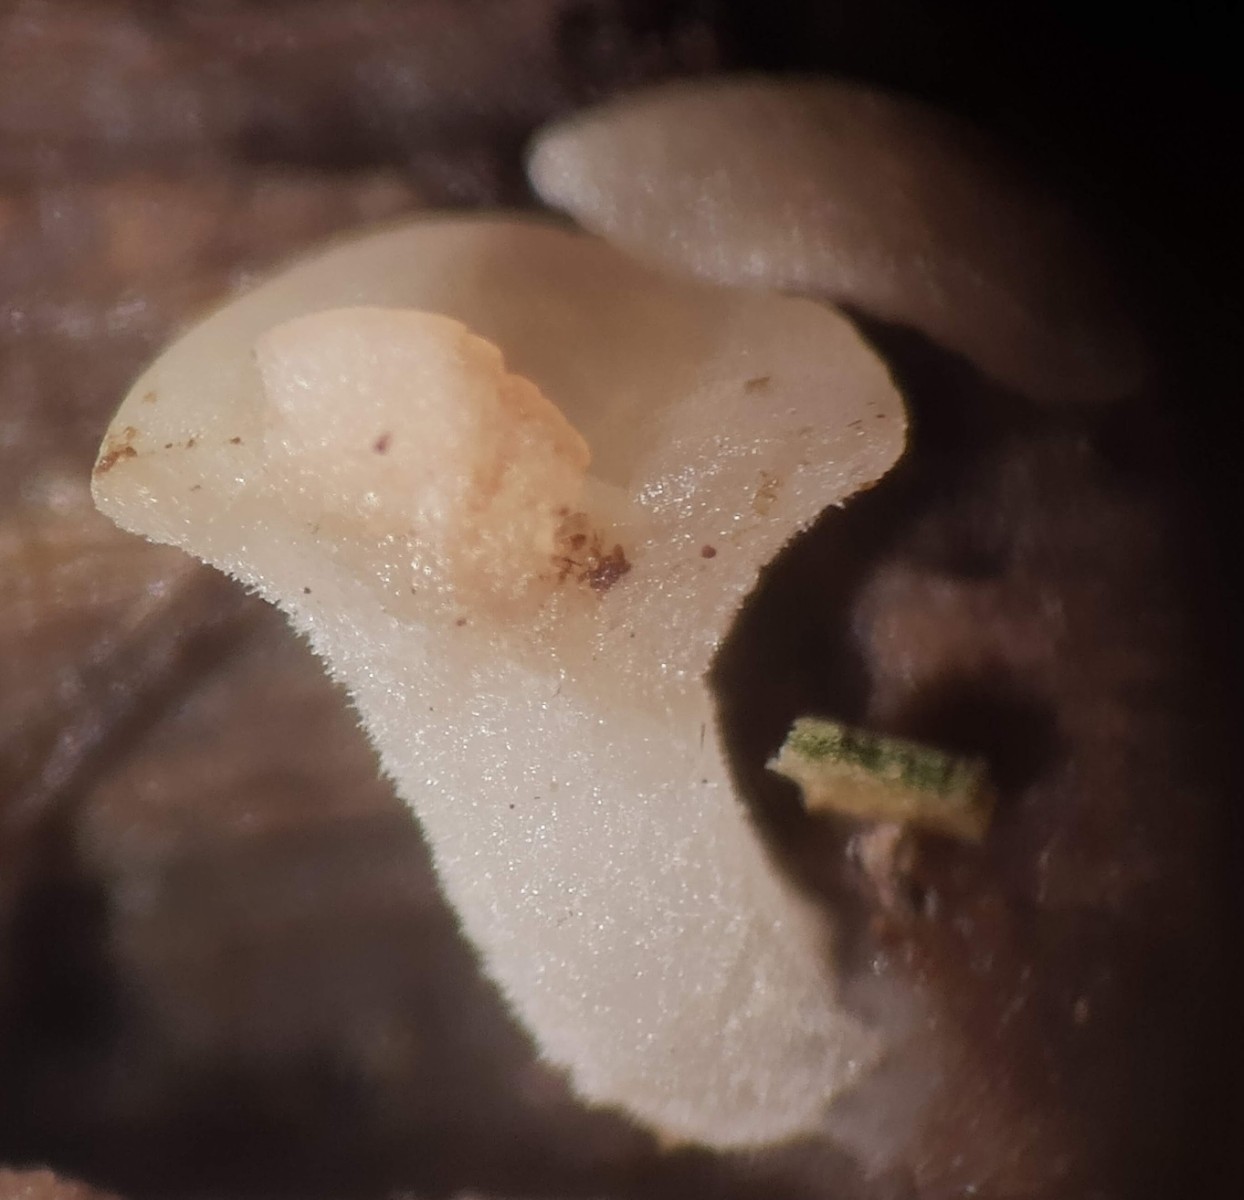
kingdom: Fungi
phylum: Ascomycota
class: Leotiomycetes
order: Helotiales
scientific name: Helotiales
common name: stilkskiveordenen
